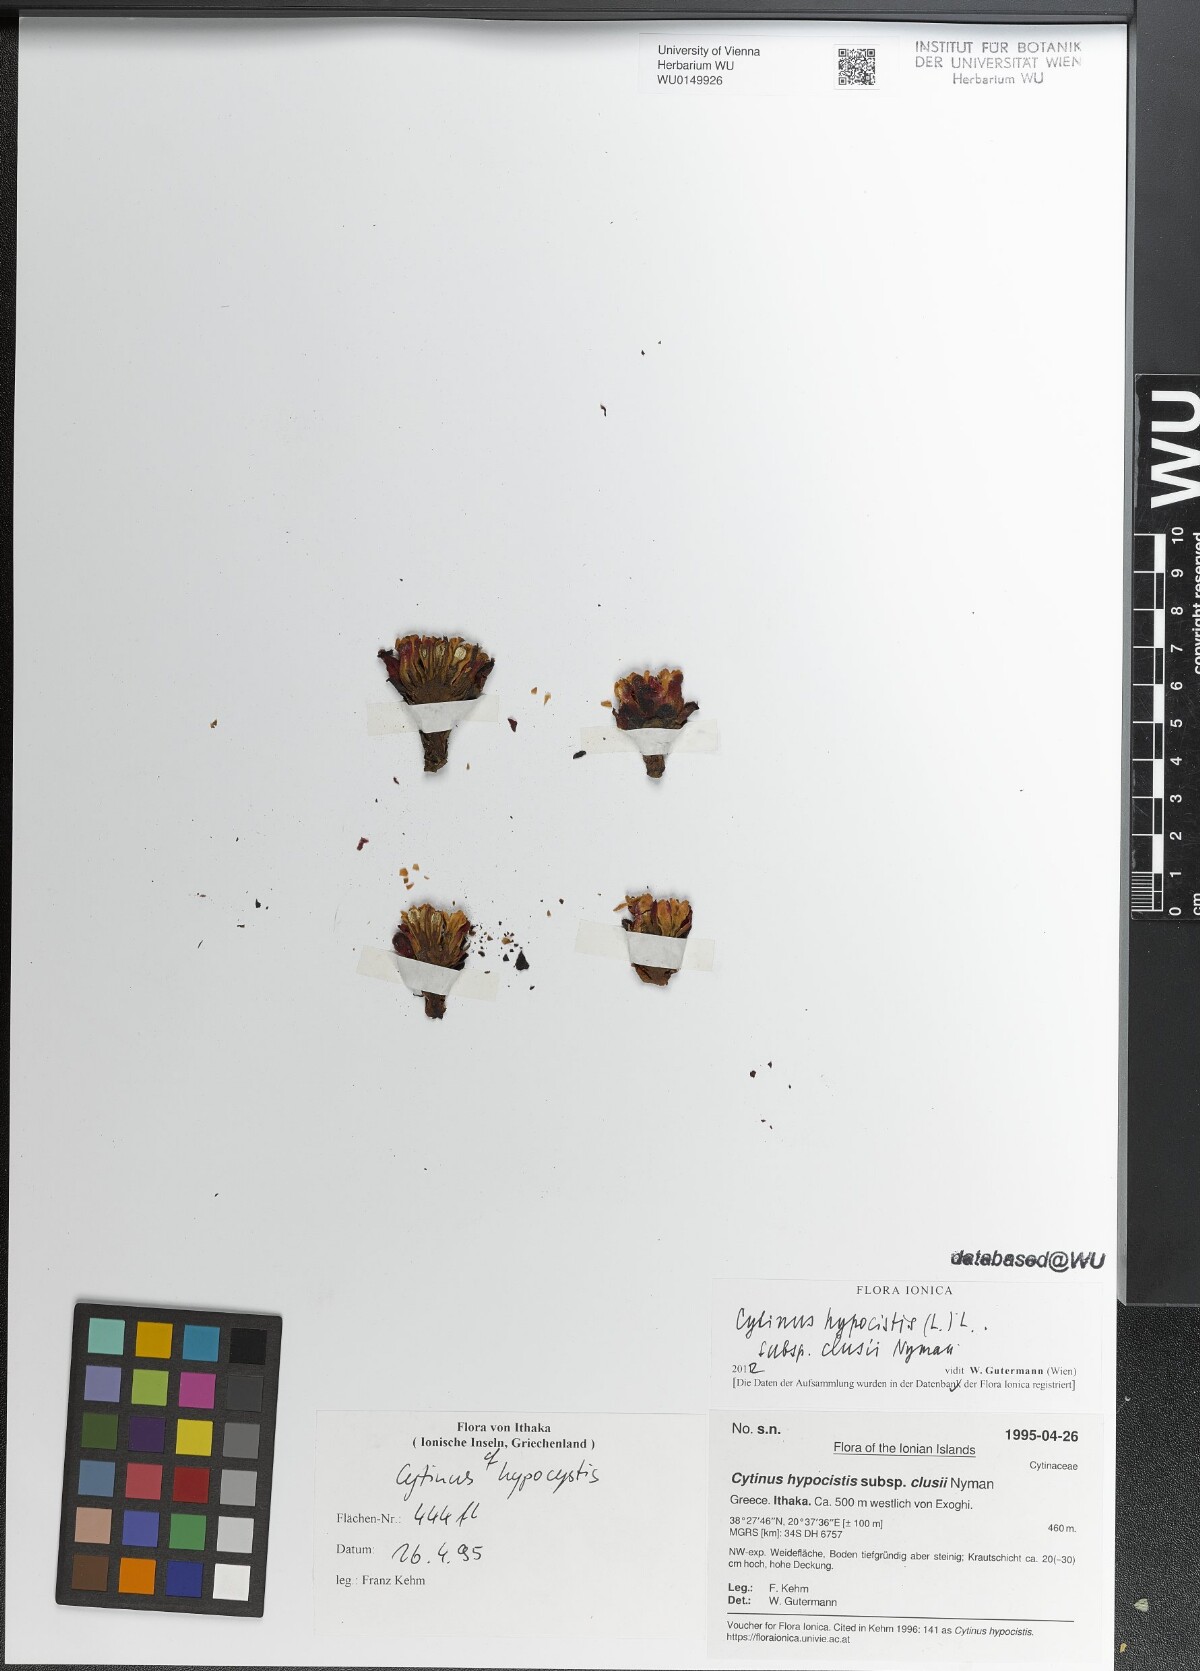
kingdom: Plantae
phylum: Tracheophyta
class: Magnoliopsida
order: Malvales
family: Cytinaceae
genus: Cytinus
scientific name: Cytinus ruber
